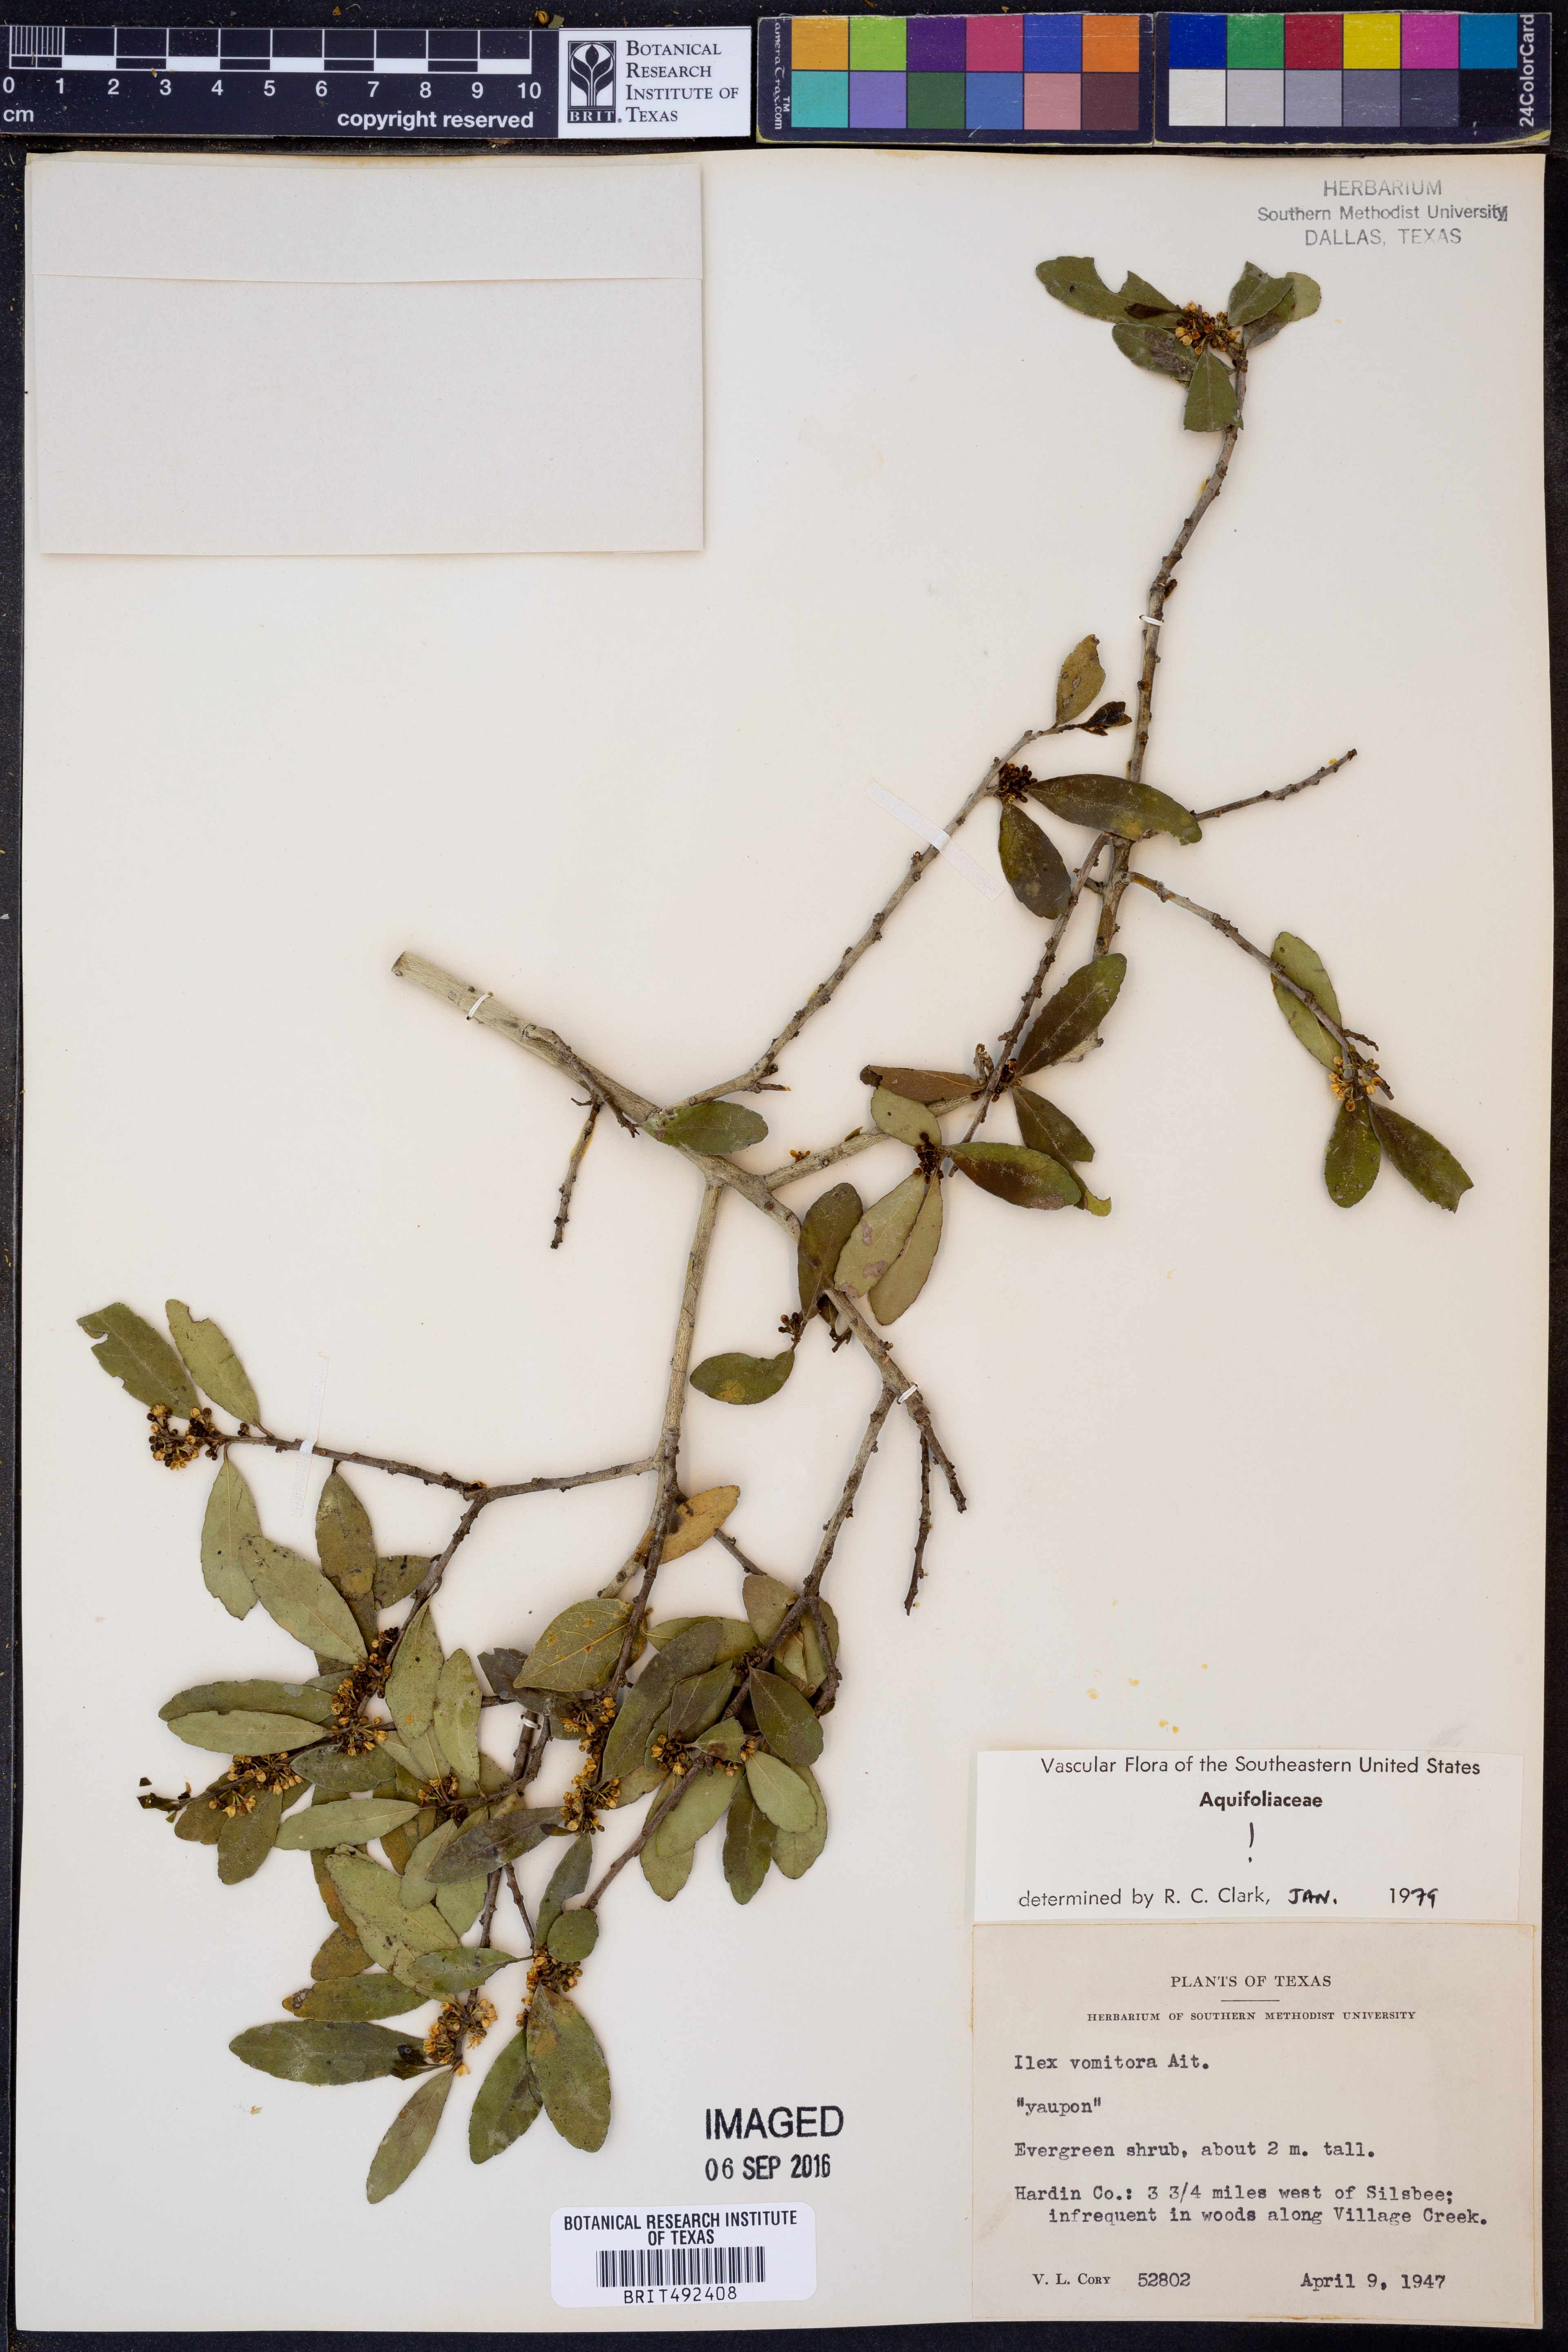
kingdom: Plantae
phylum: Tracheophyta
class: Magnoliopsida
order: Aquifoliales
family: Aquifoliaceae
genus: Ilex
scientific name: Ilex vomitoria
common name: Yaupon holly
